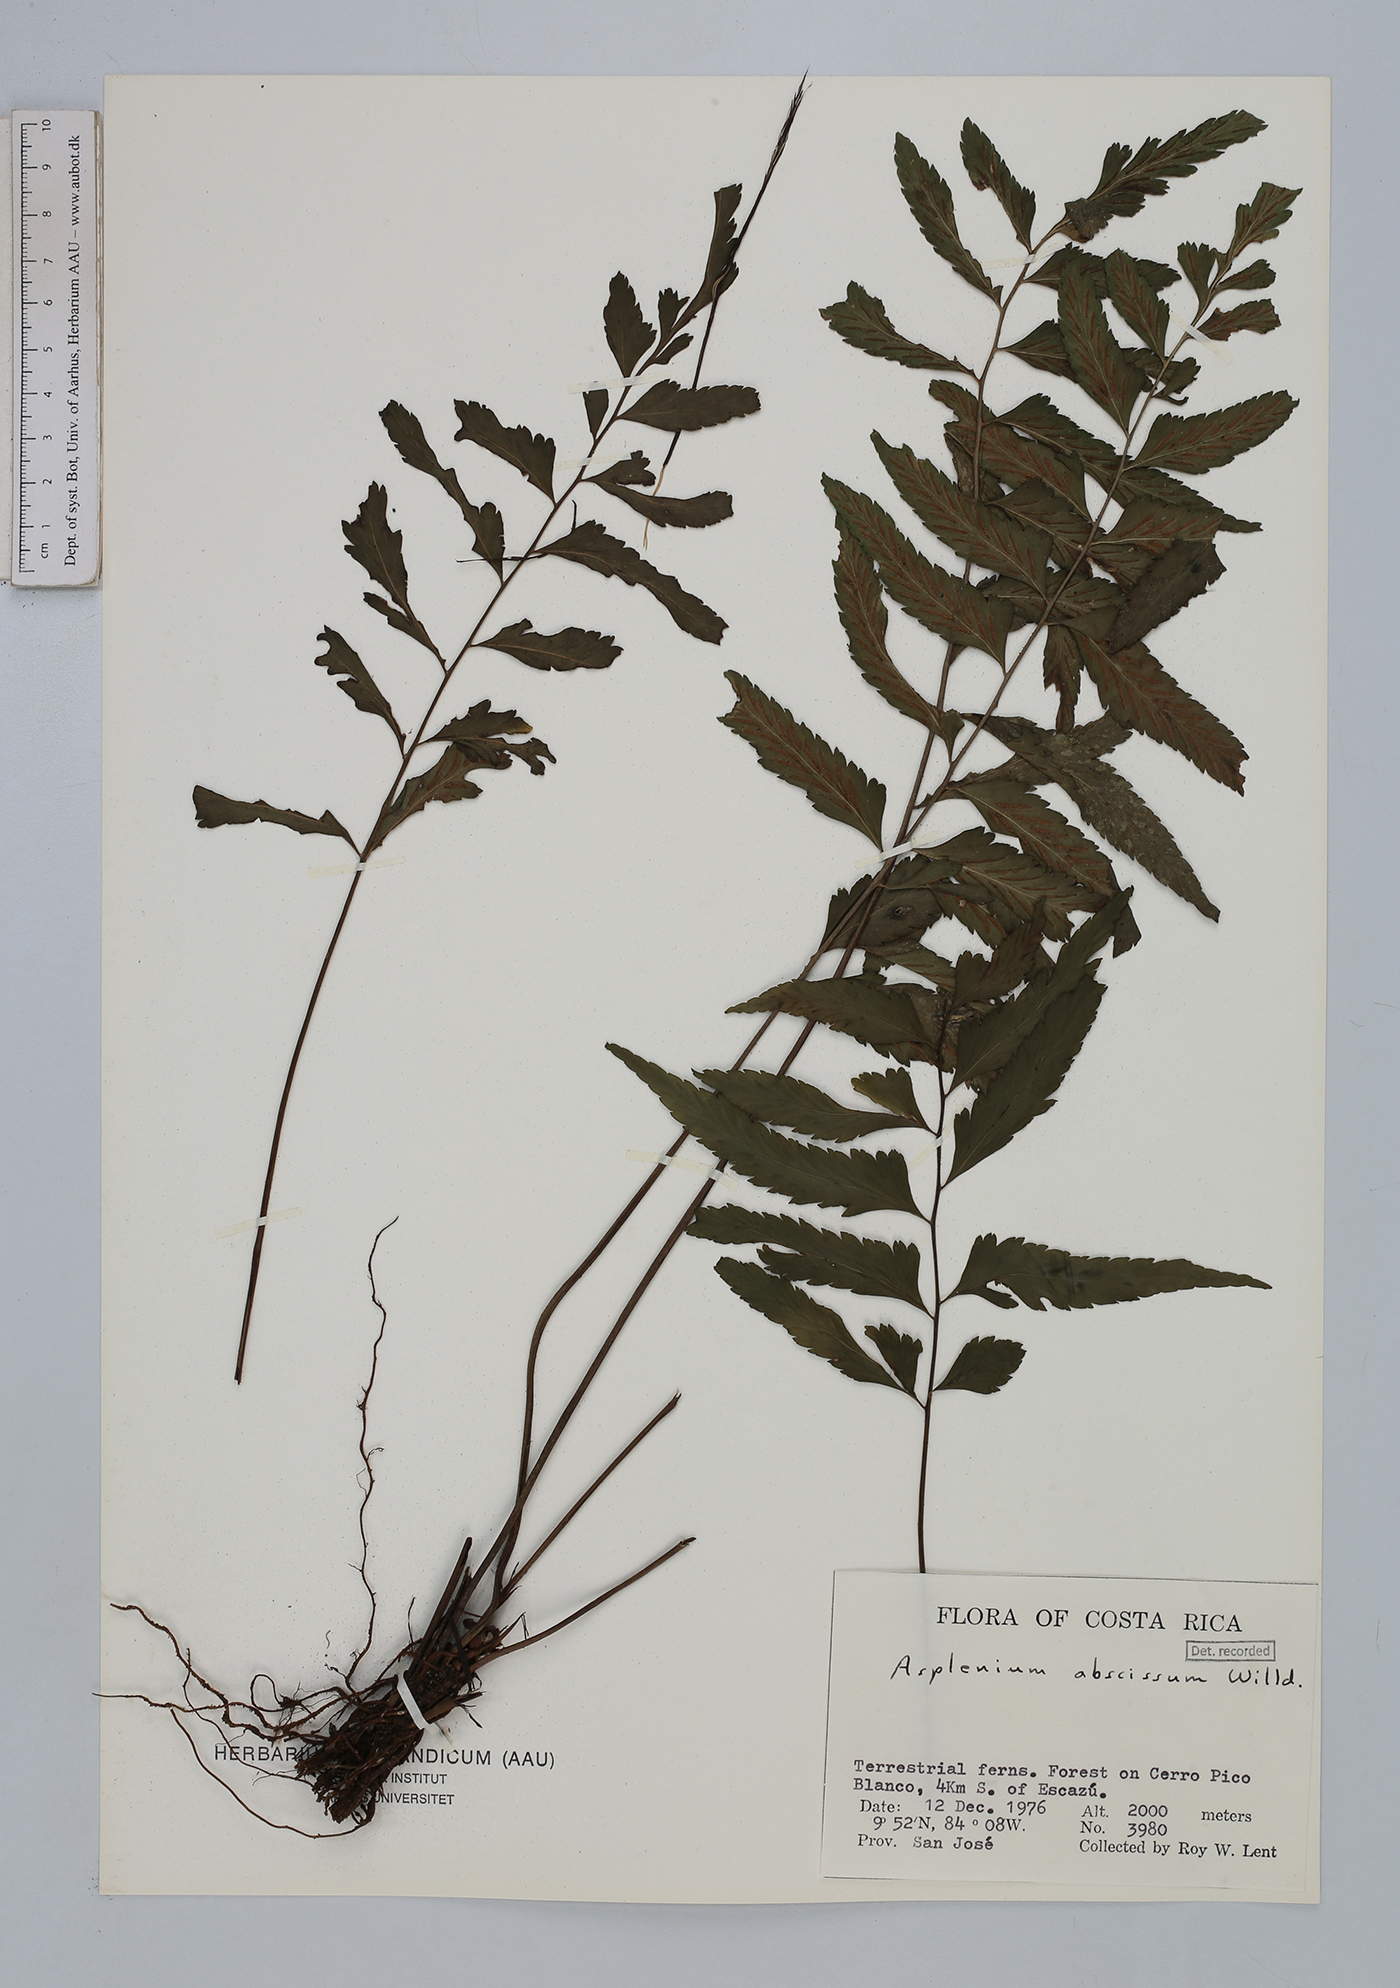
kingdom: Plantae
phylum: Tracheophyta
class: Polypodiopsida
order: Polypodiales
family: Aspleniaceae
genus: Asplenium
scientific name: Asplenium abscissum
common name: Cutleaf spleenwort
